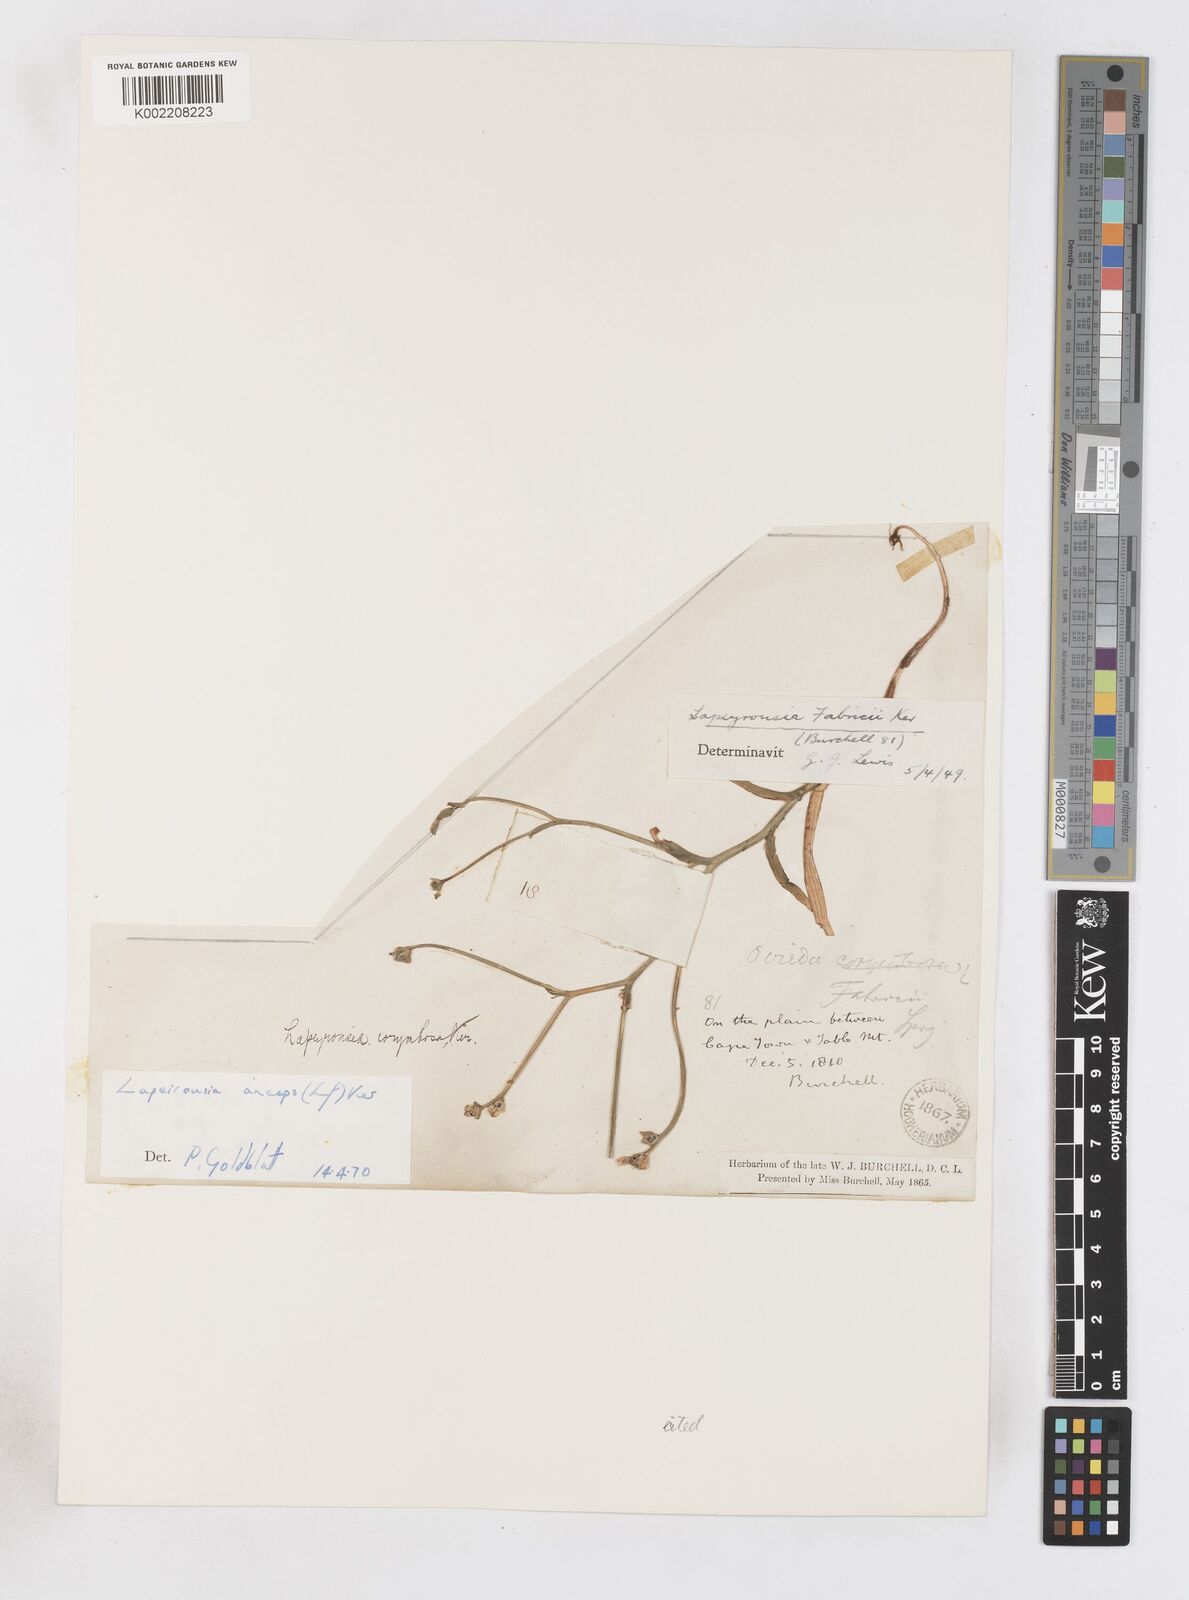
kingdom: Plantae
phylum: Tracheophyta
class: Liliopsida
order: Asparagales
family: Iridaceae
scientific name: Iridaceae
